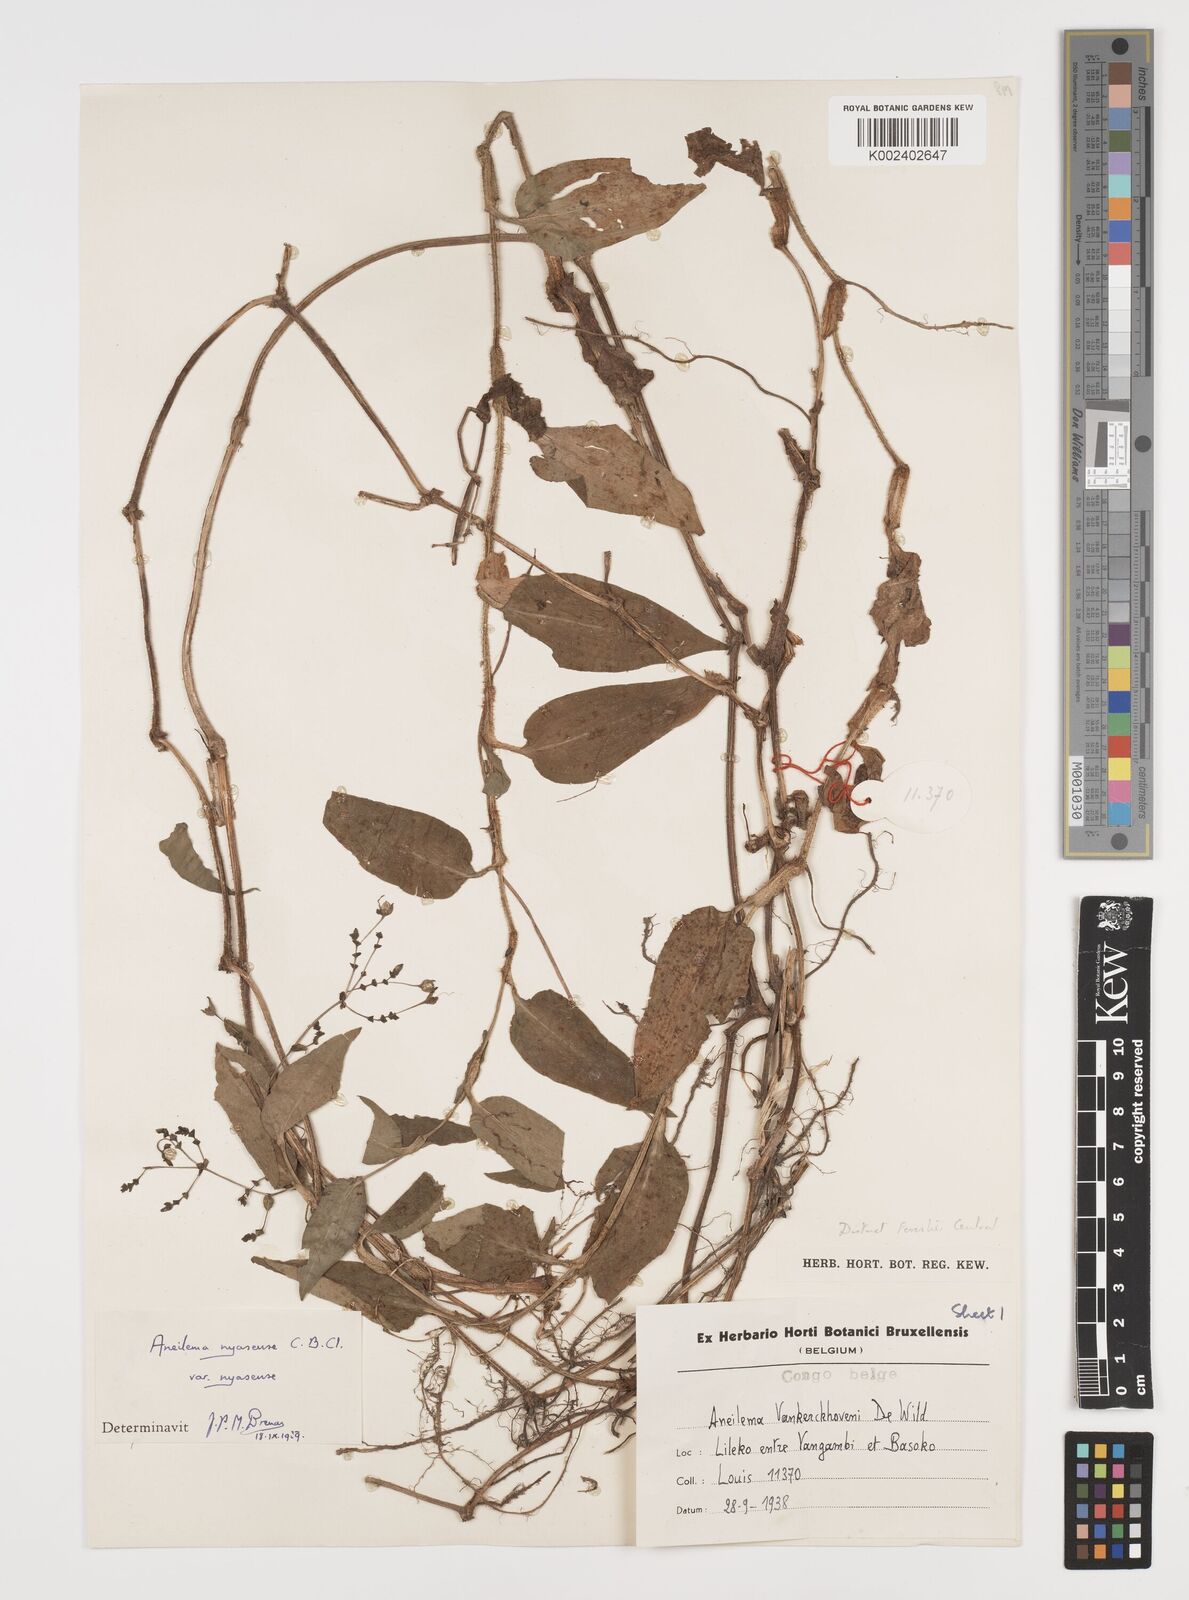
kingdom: Plantae
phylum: Tracheophyta
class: Liliopsida
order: Commelinales
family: Commelinaceae
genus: Aneilema
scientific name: Aneilema nyasense
